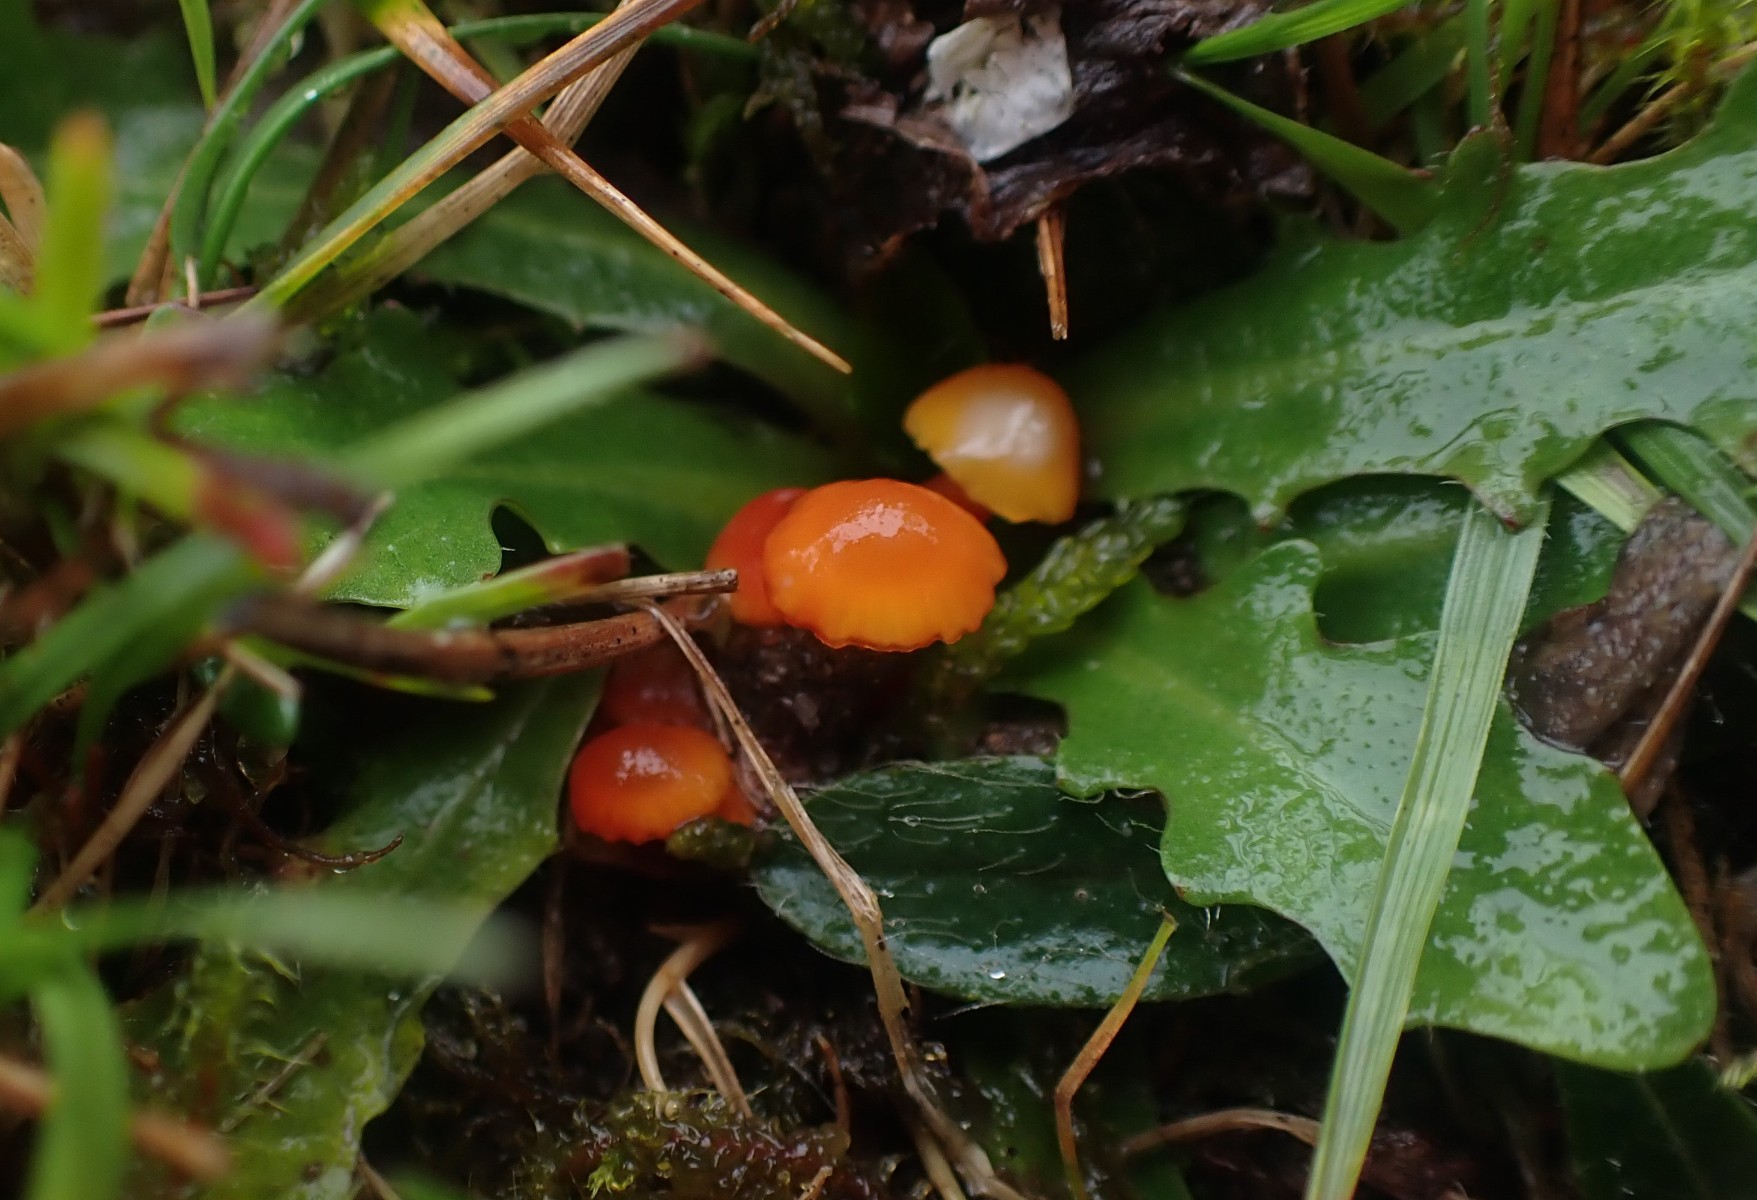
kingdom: Fungi
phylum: Basidiomycota
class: Agaricomycetes
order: Agaricales
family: Hygrophoraceae
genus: Hygrocybe
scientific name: Hygrocybe insipida
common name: liden vokshat
